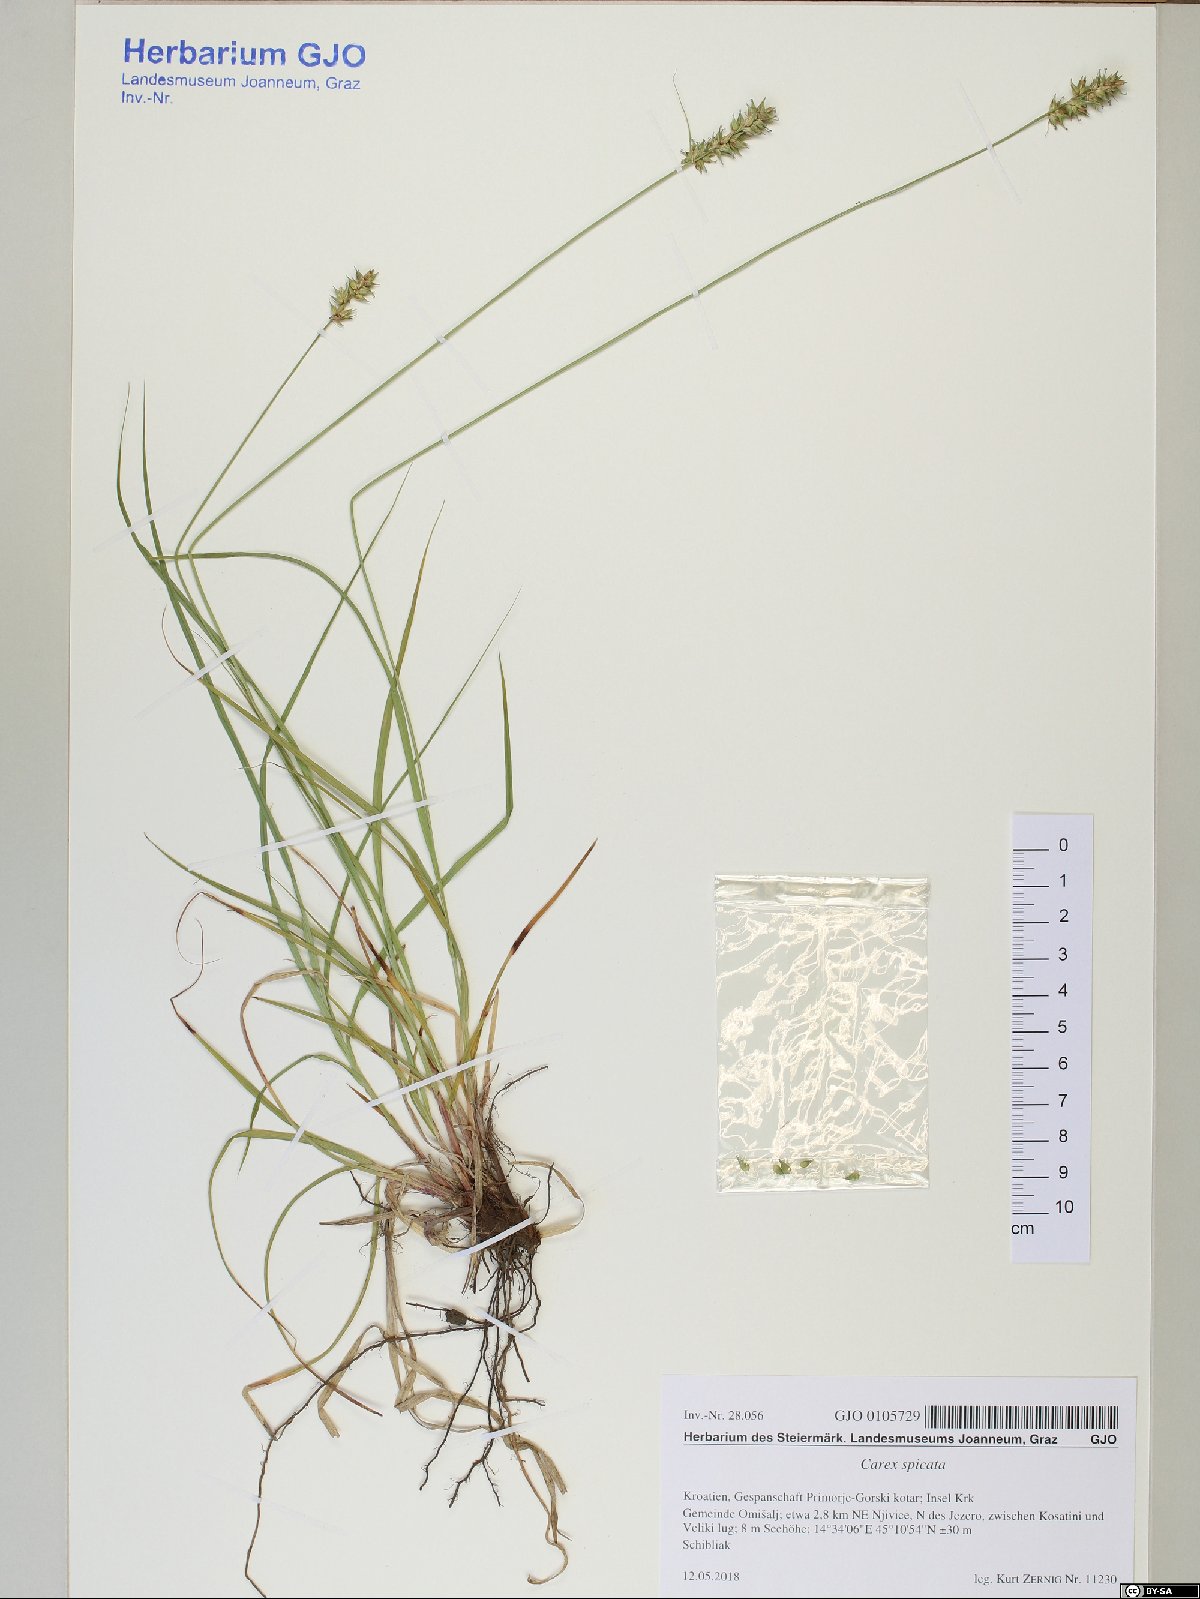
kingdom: Plantae
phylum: Tracheophyta
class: Liliopsida
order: Poales
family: Cyperaceae
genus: Carex
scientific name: Carex spicata
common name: Spiked sedge
